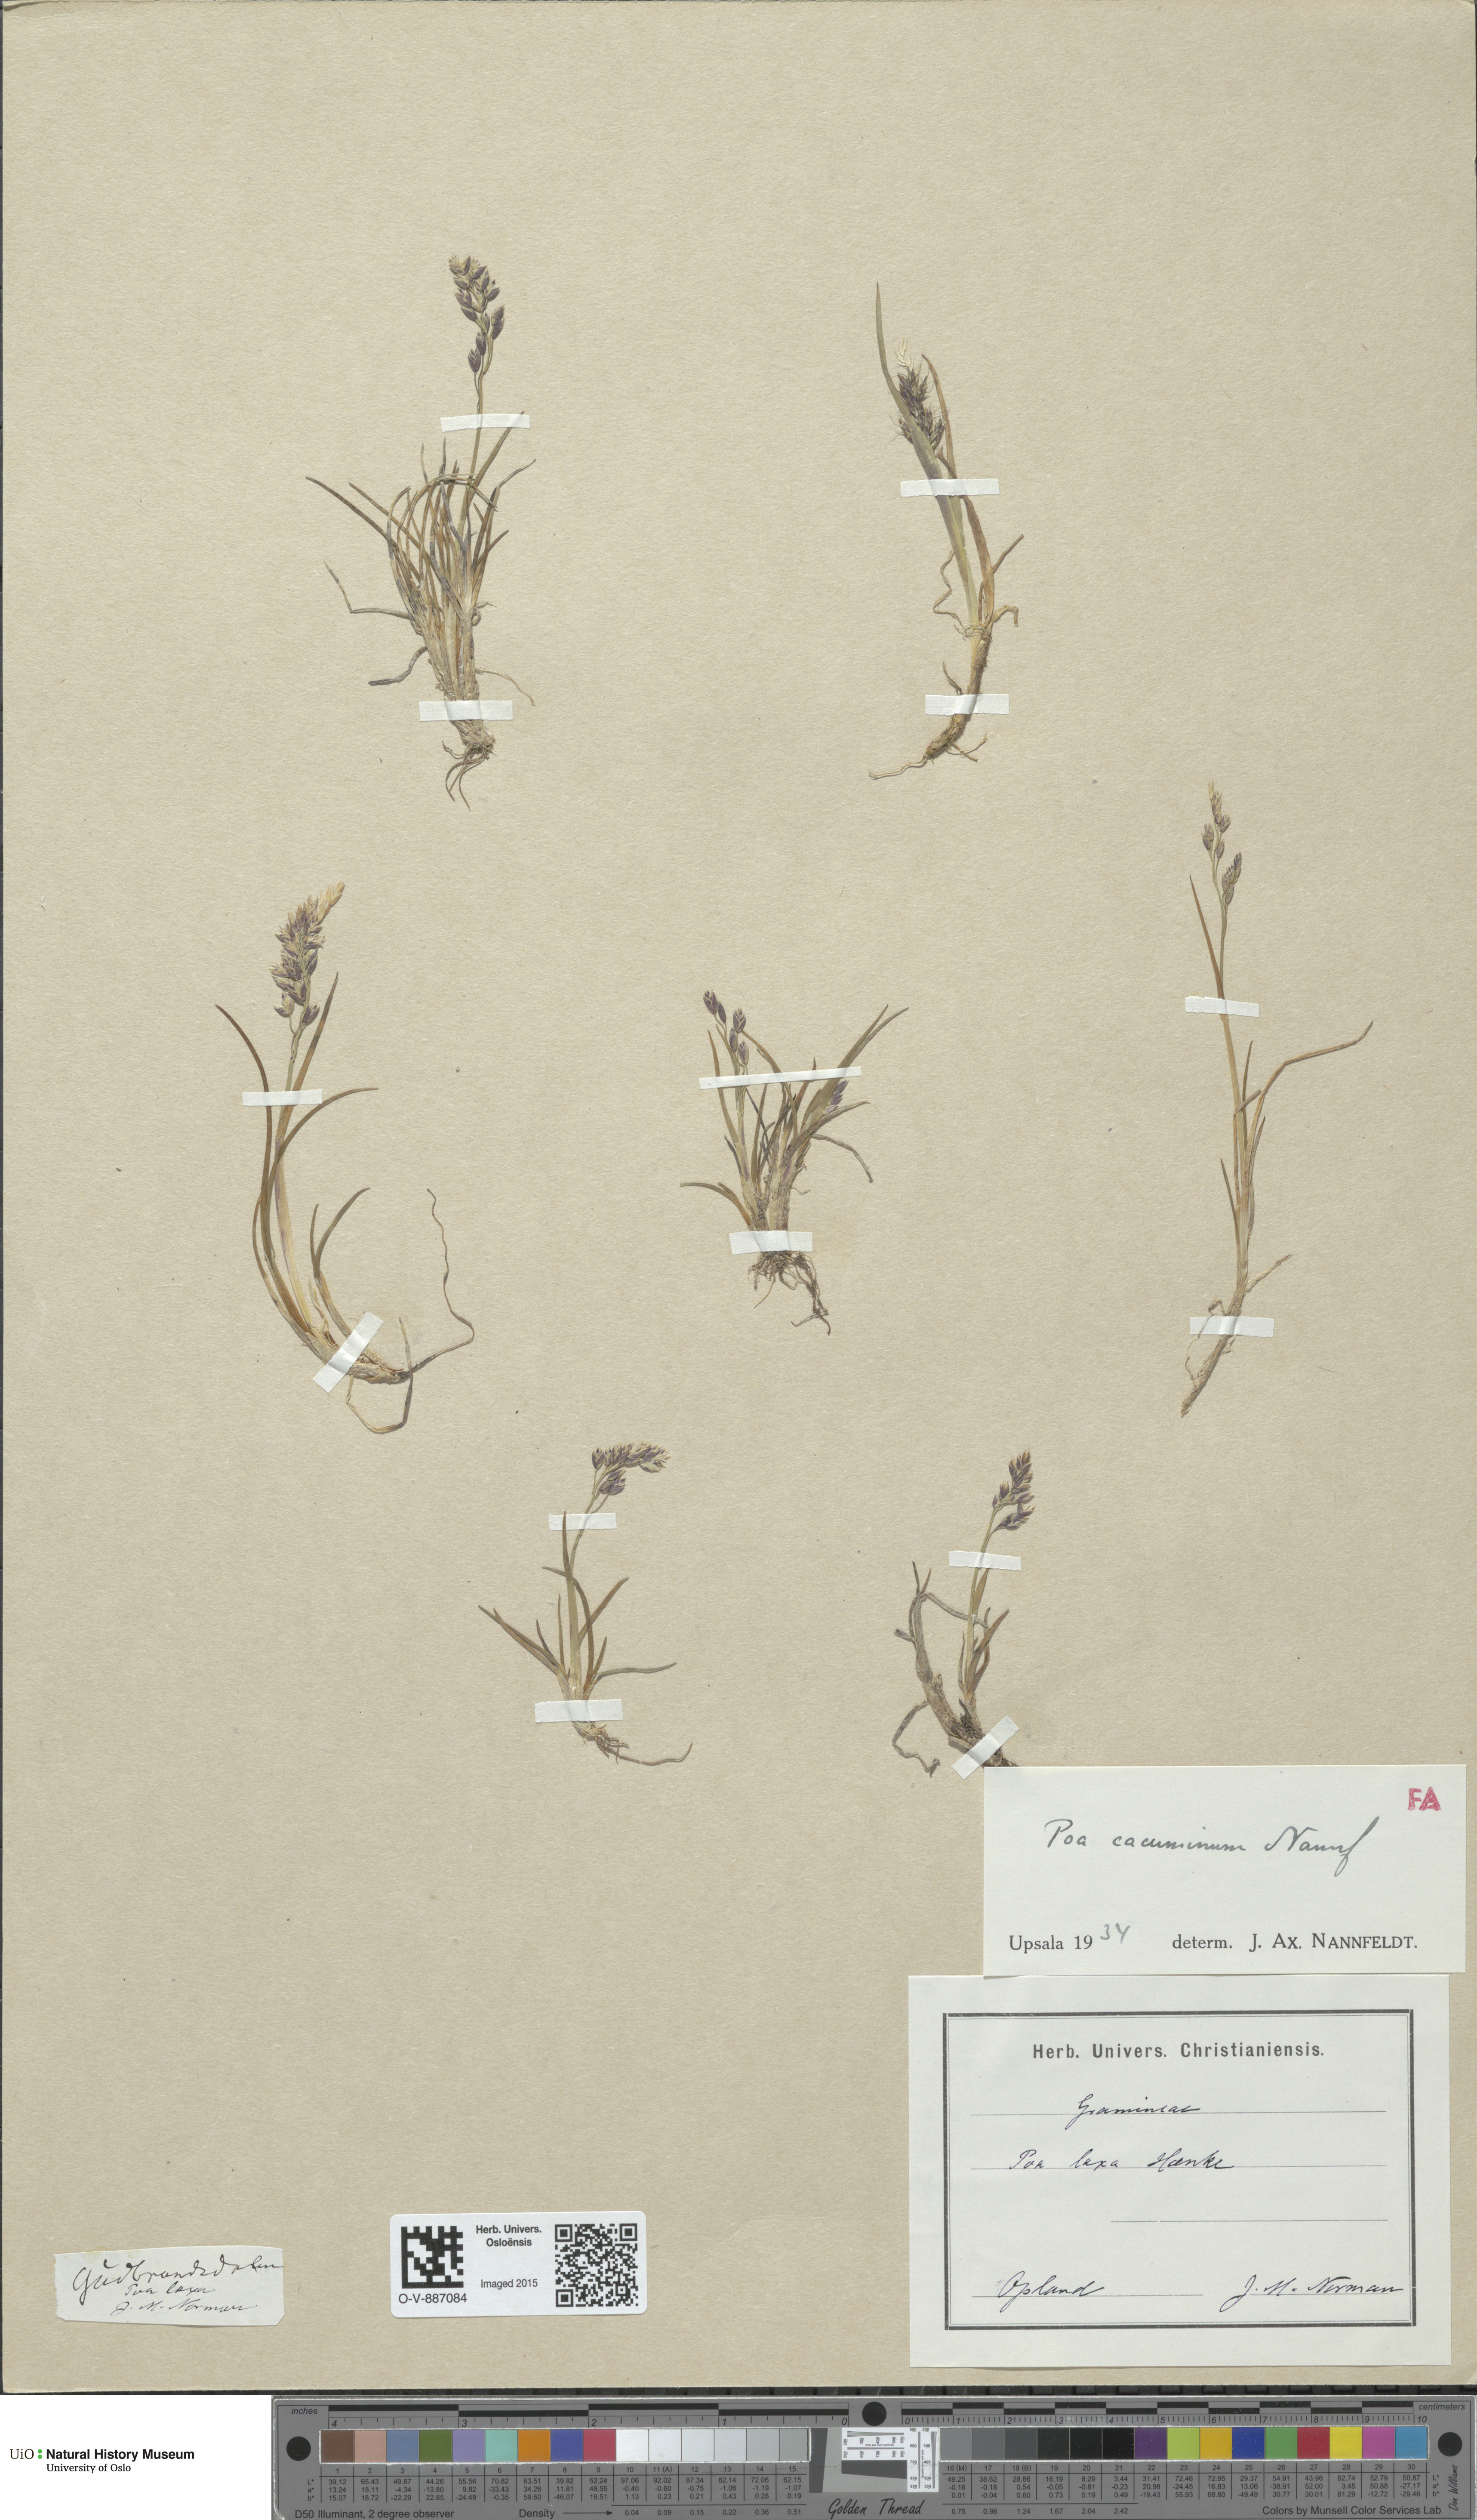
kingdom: Plantae
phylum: Tracheophyta
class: Liliopsida
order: Poales
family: Poaceae
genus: Poa
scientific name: Poa flexuosa
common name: Wavy meadow-grass
